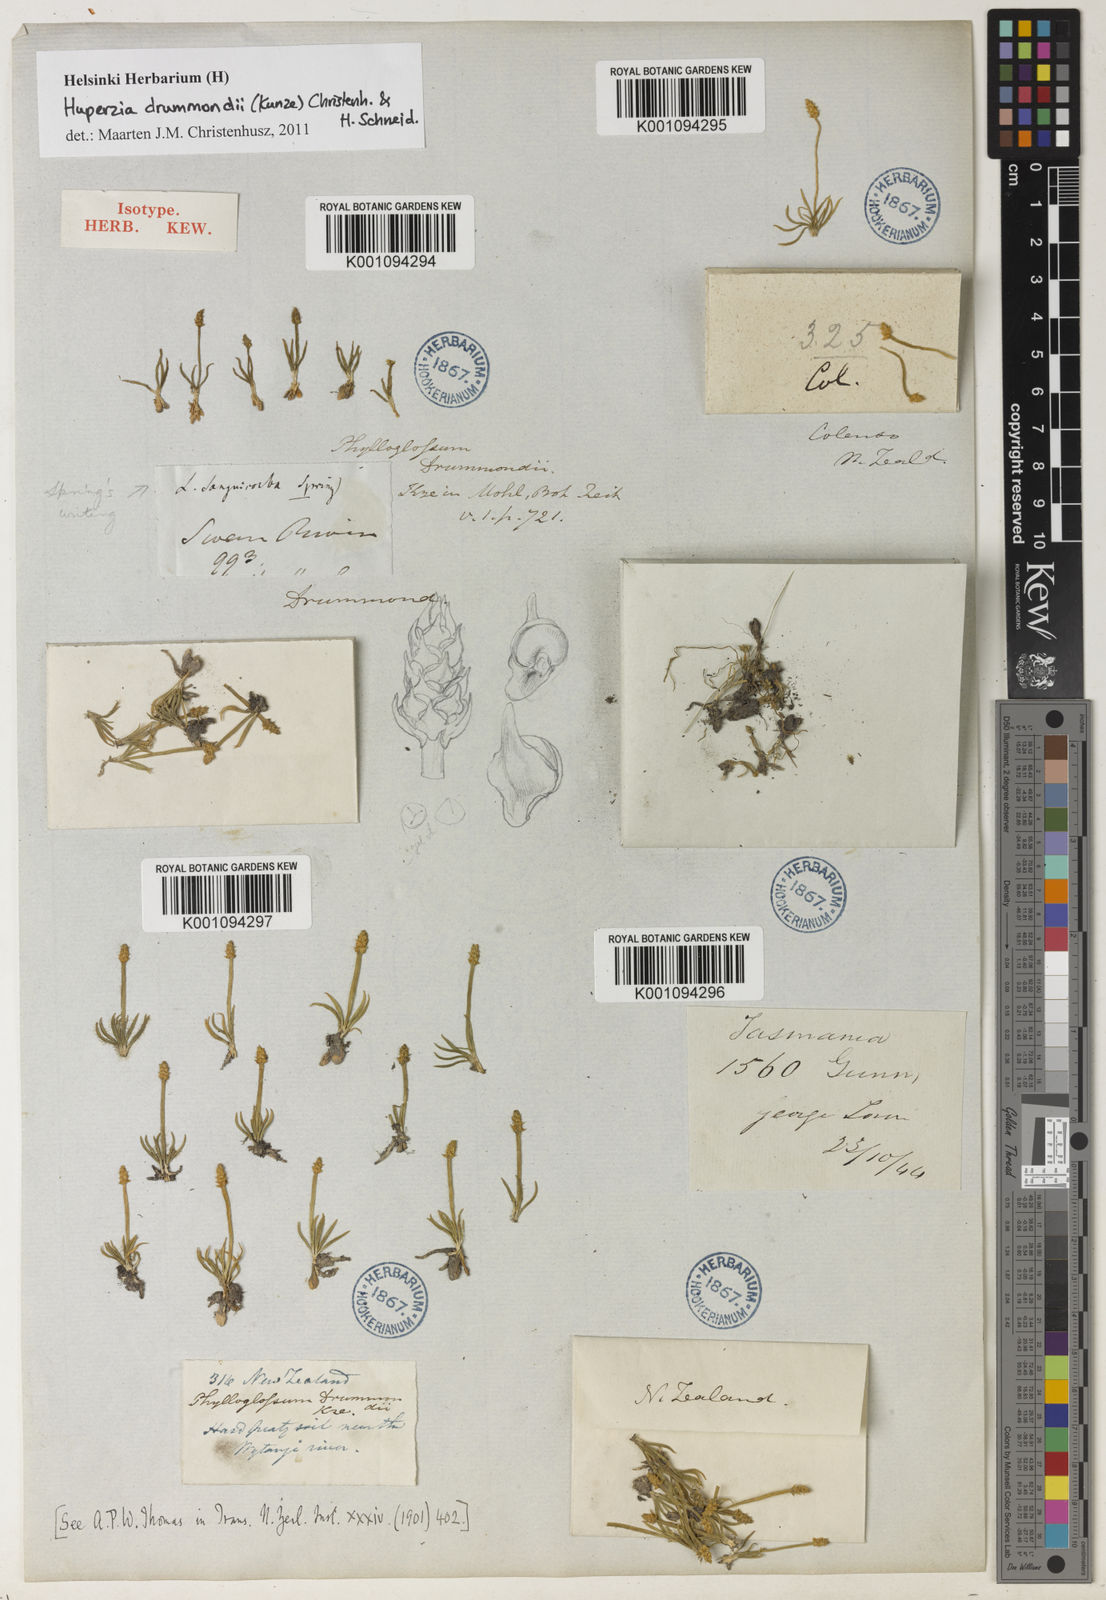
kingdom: Plantae
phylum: Tracheophyta
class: Lycopodiopsida
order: Lycopodiales
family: Lycopodiaceae
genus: Phylloglossum
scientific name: Phylloglossum drummondii
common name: Pigmy-club-moss
